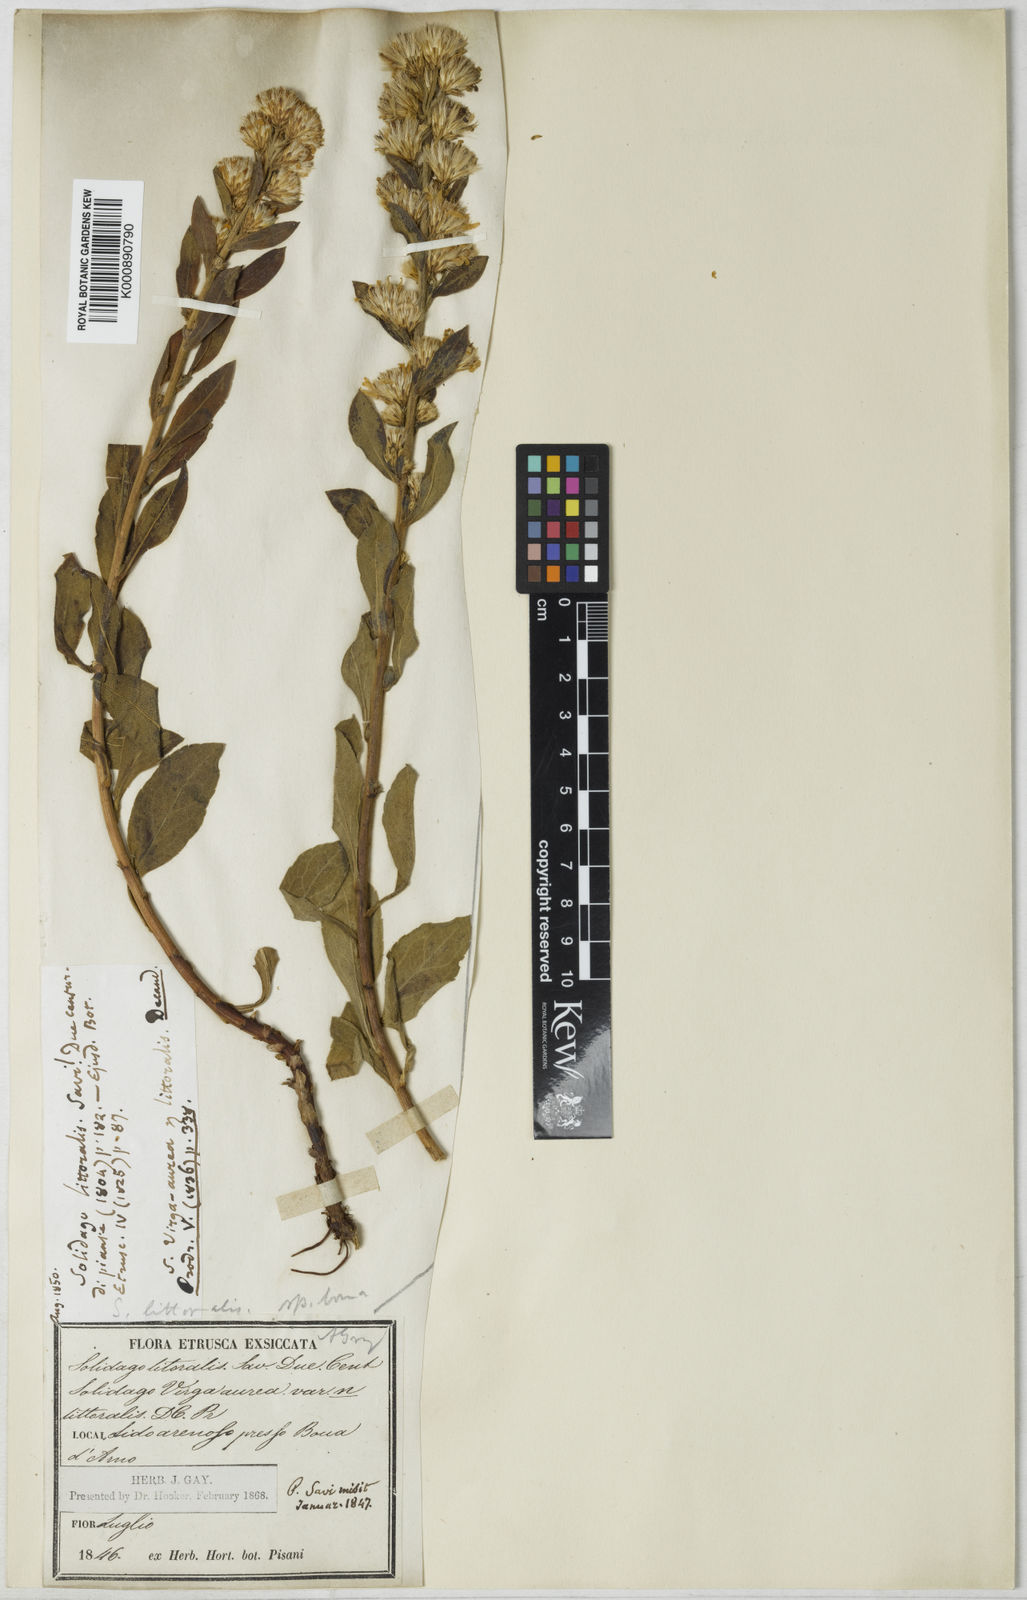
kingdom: Plantae
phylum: Tracheophyta
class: Magnoliopsida
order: Asterales
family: Asteraceae
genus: Solidago
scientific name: Solidago litoralis
